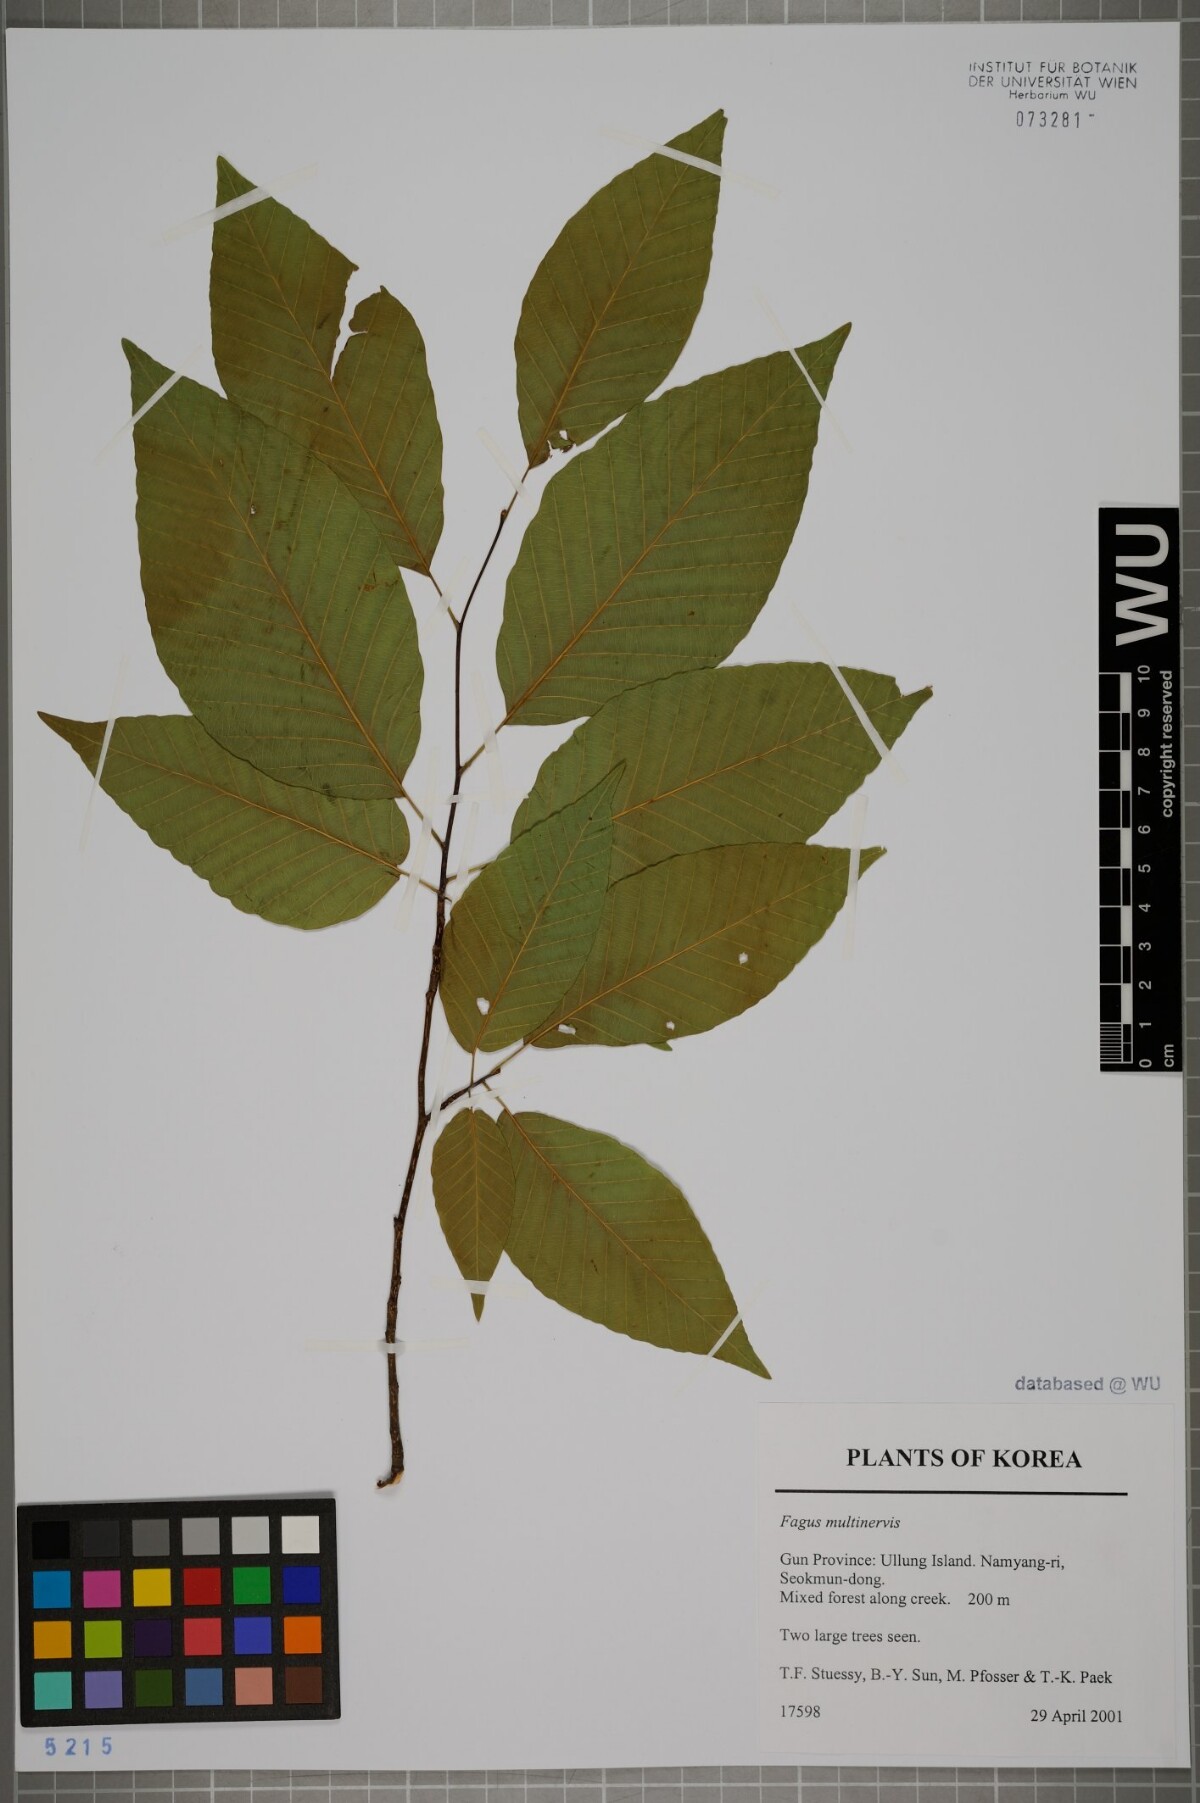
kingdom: Plantae
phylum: Tracheophyta
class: Magnoliopsida
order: Fagales
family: Fagaceae
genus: Fagus
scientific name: Fagus multinervis
